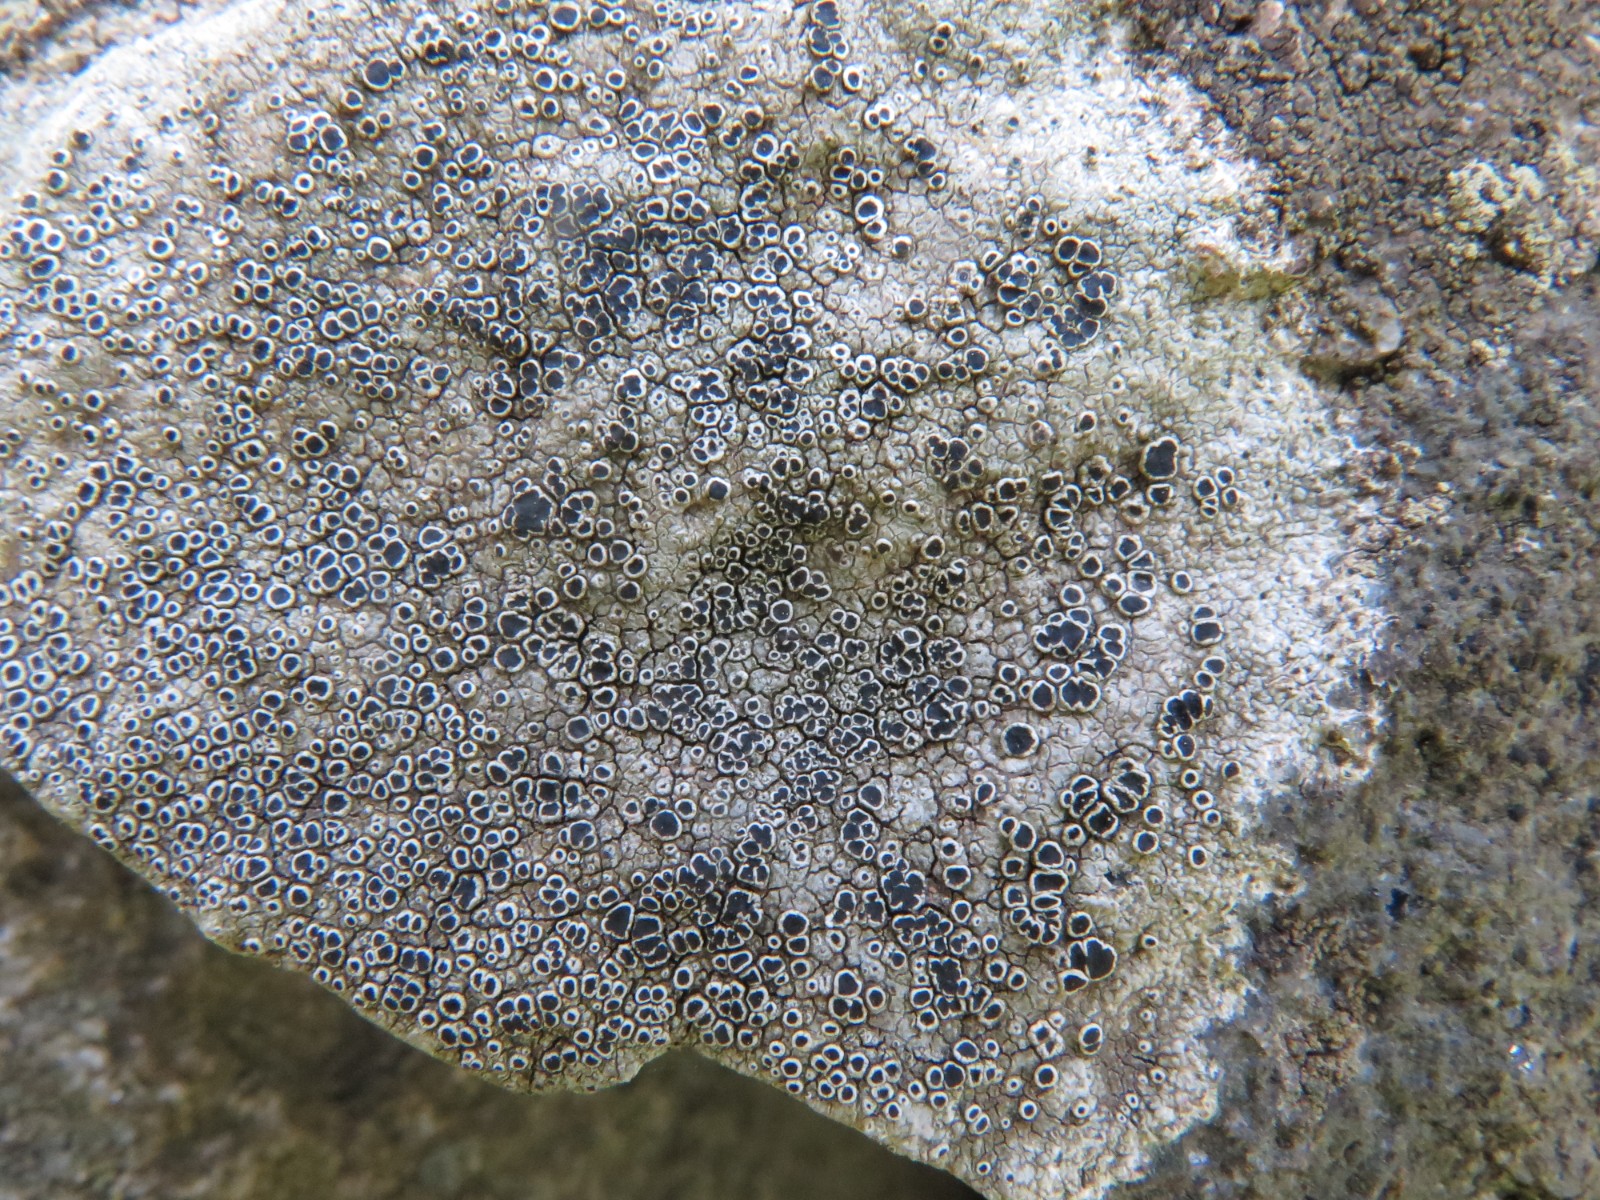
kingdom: Fungi
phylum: Ascomycota
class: Lecanoromycetes
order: Lecanorales
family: Tephromelataceae
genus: Tephromela
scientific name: Tephromela atra
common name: sortfrugtet kantskivelav
